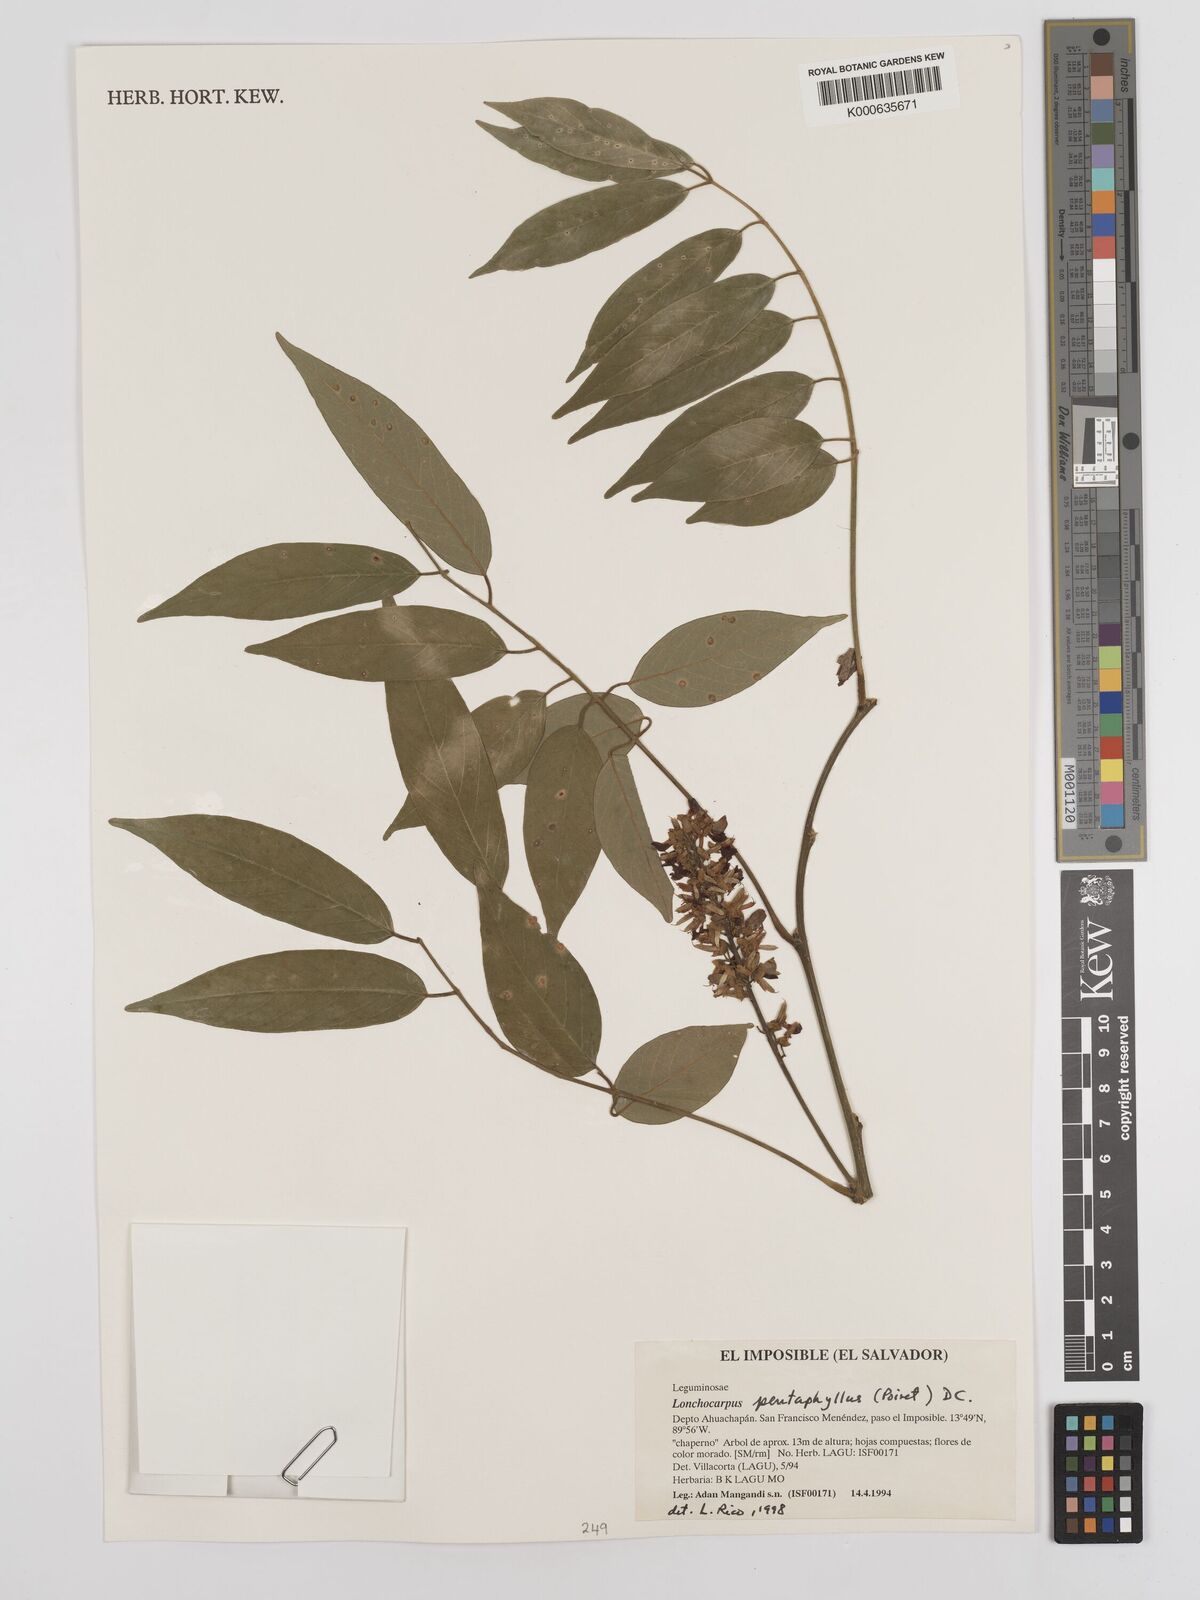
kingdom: Plantae
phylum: Tracheophyta
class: Magnoliopsida
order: Fabales
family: Fabaceae
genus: Lonchocarpus
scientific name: Lonchocarpus
